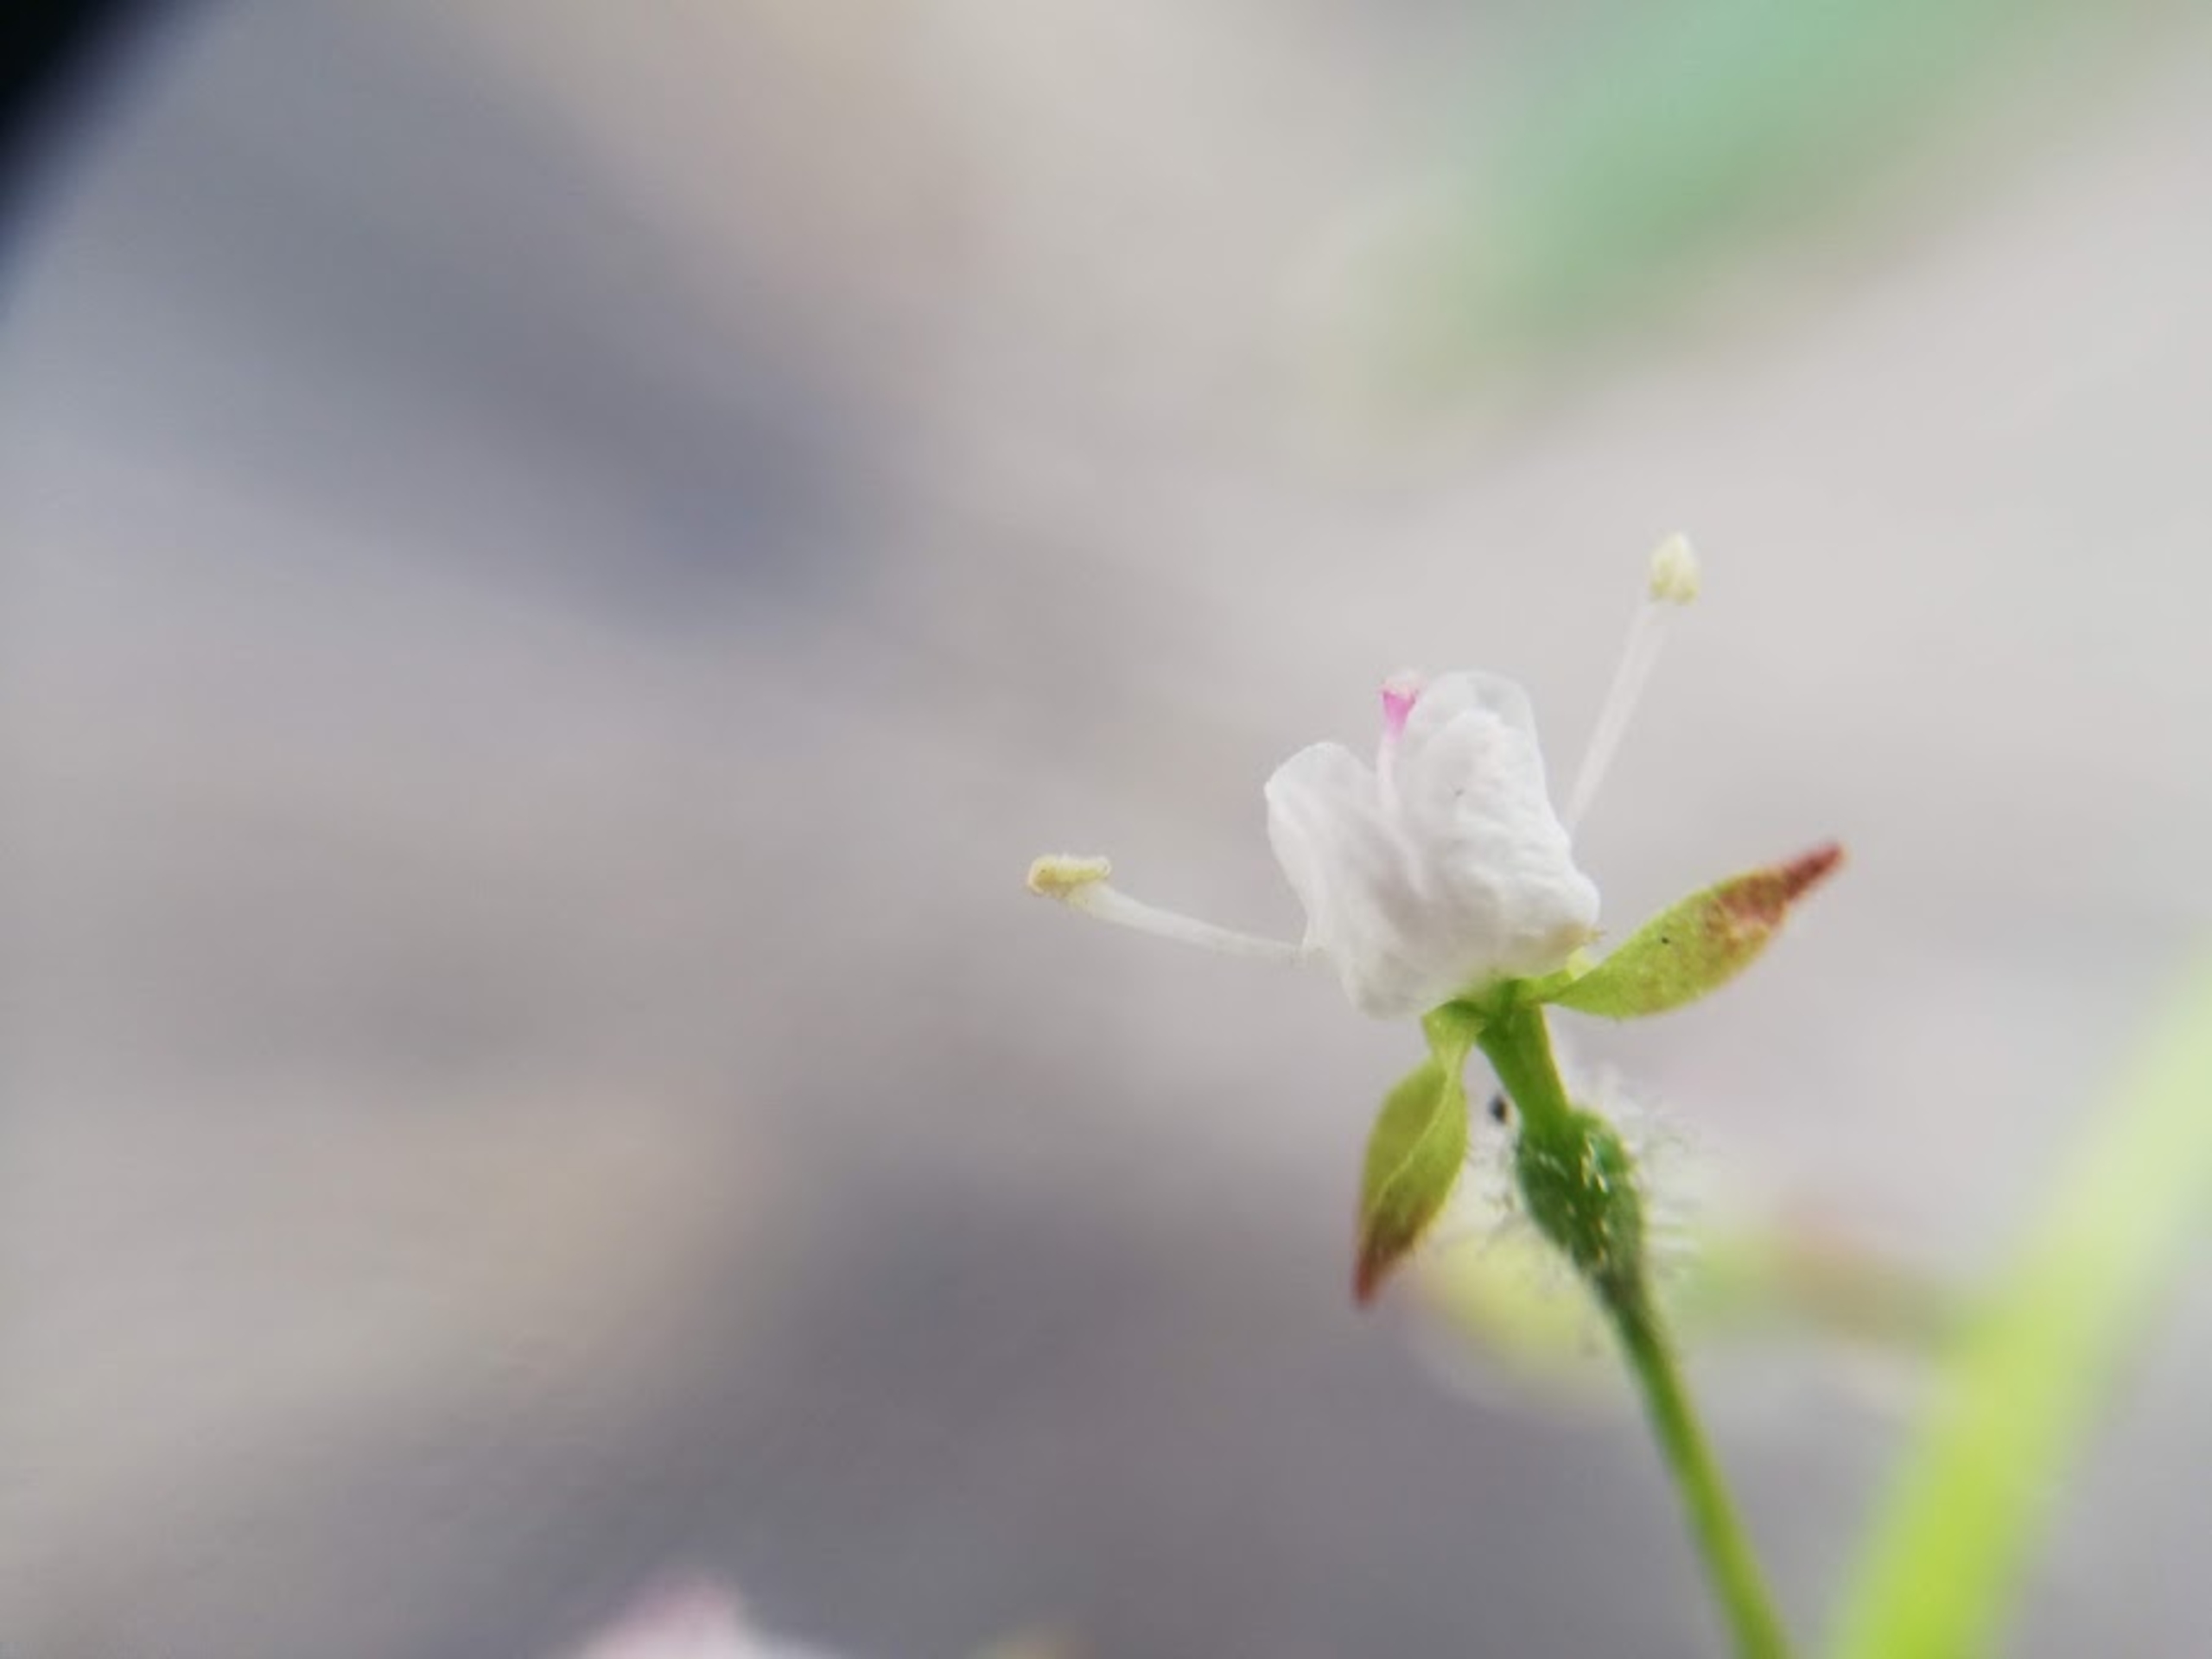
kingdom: Plantae
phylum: Tracheophyta
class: Magnoliopsida
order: Myrtales
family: Onagraceae
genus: Circaea
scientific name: Circaea lutetiana
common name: Dunet steffensurt
